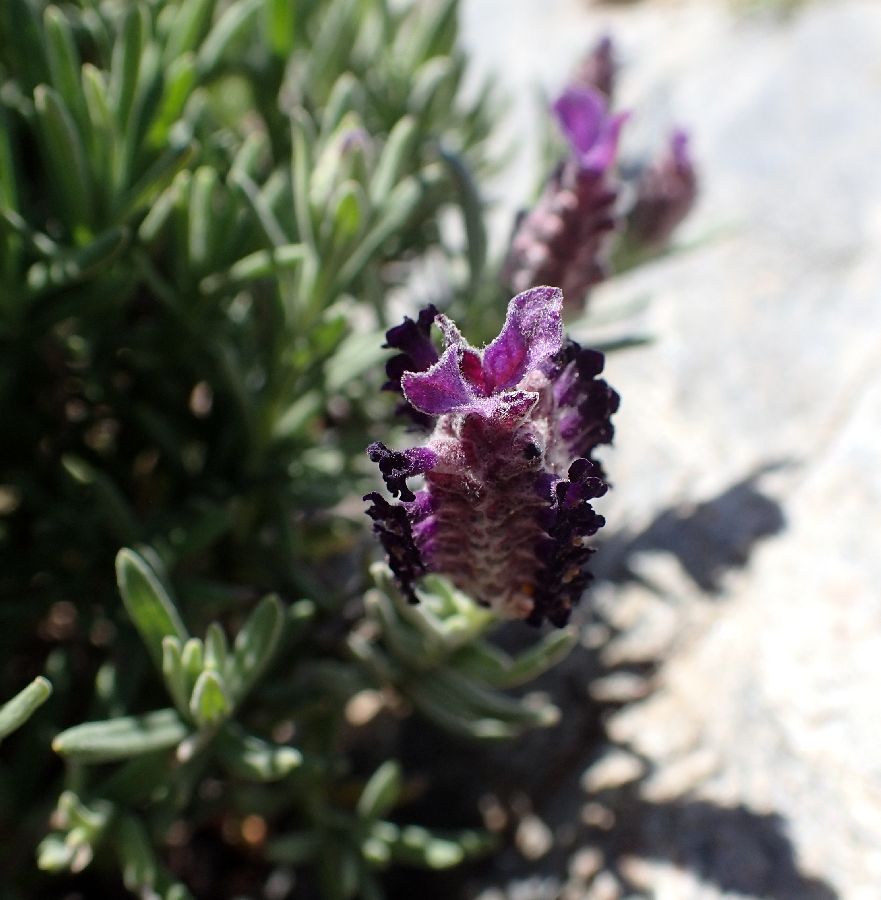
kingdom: Plantae
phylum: Tracheophyta
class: Magnoliopsida
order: Lamiales
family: Lamiaceae
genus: Lavandula
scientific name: Lavandula stoechas
